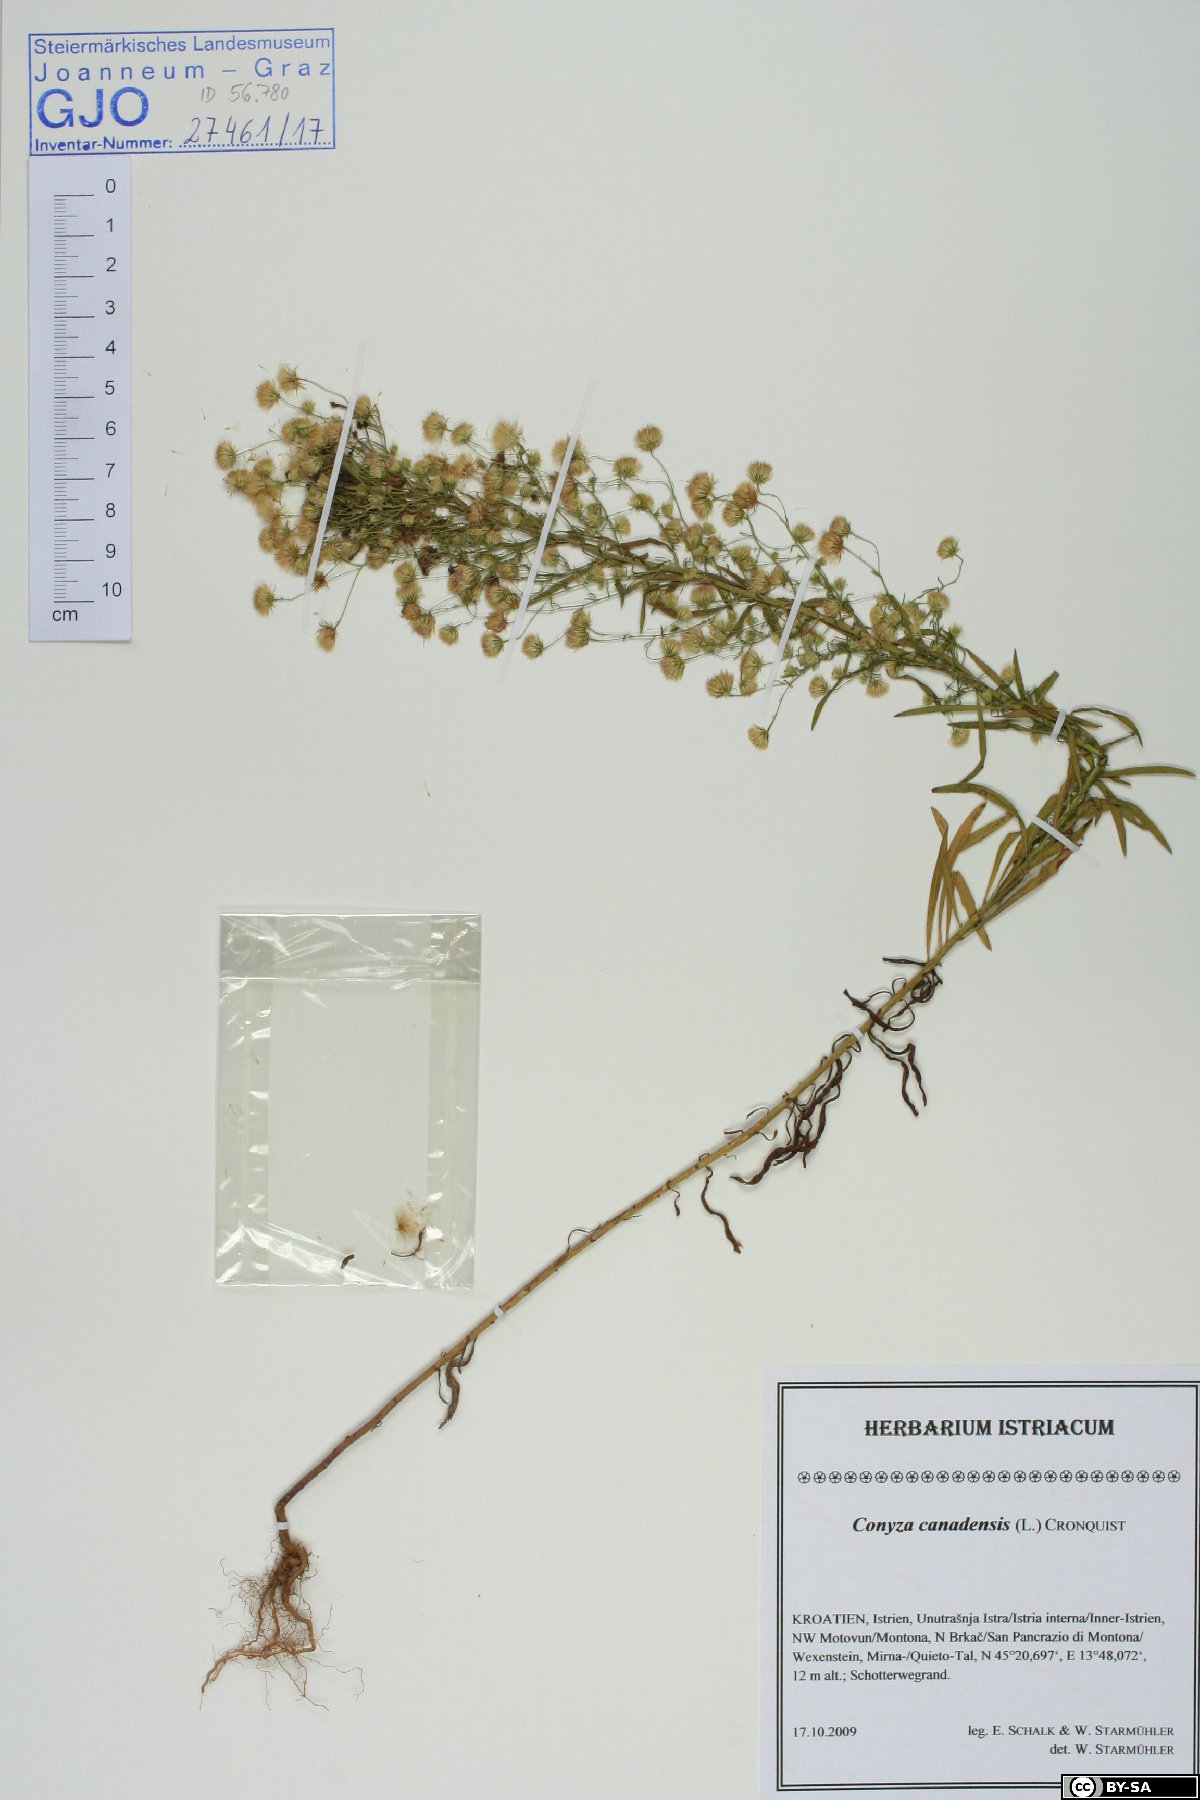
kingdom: Plantae
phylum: Tracheophyta
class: Magnoliopsida
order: Asterales
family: Asteraceae
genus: Erigeron
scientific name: Erigeron canadensis
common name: Canadian fleabane
